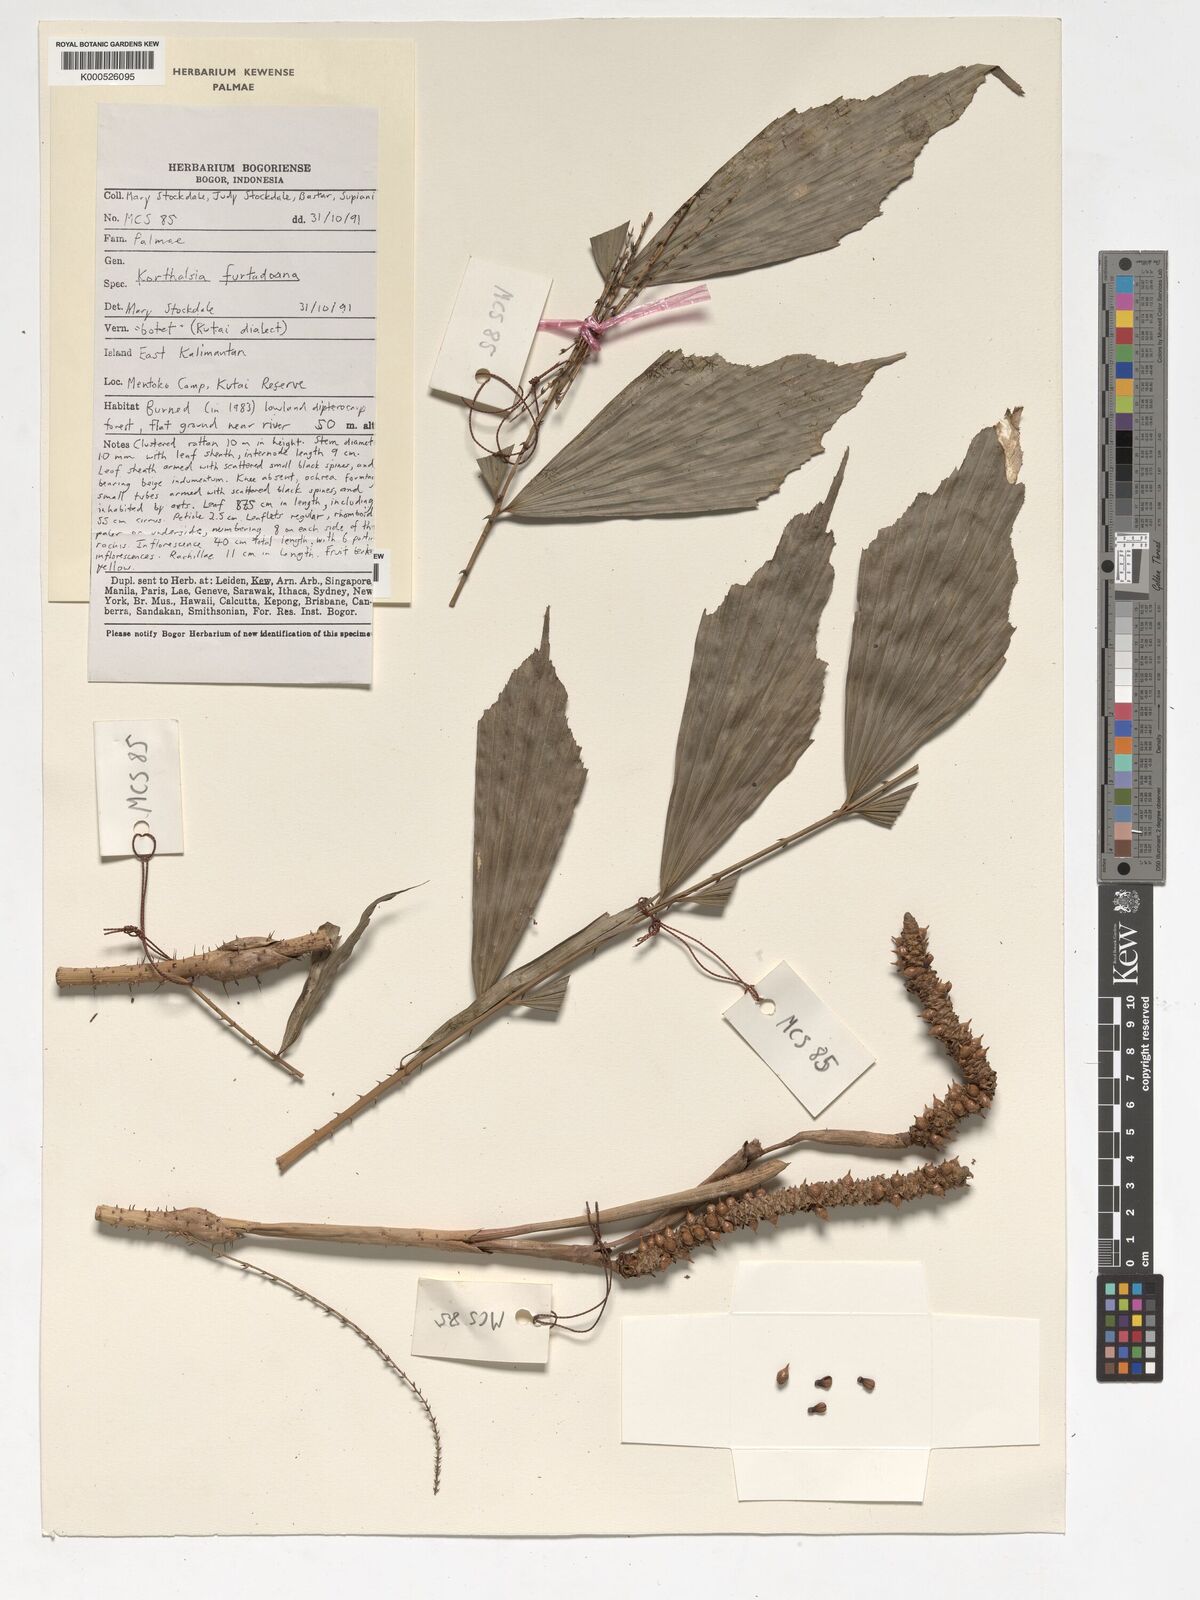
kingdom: Plantae
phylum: Tracheophyta
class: Liliopsida
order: Arecales
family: Arecaceae
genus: Korthalsia
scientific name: Korthalsia furtadoana
